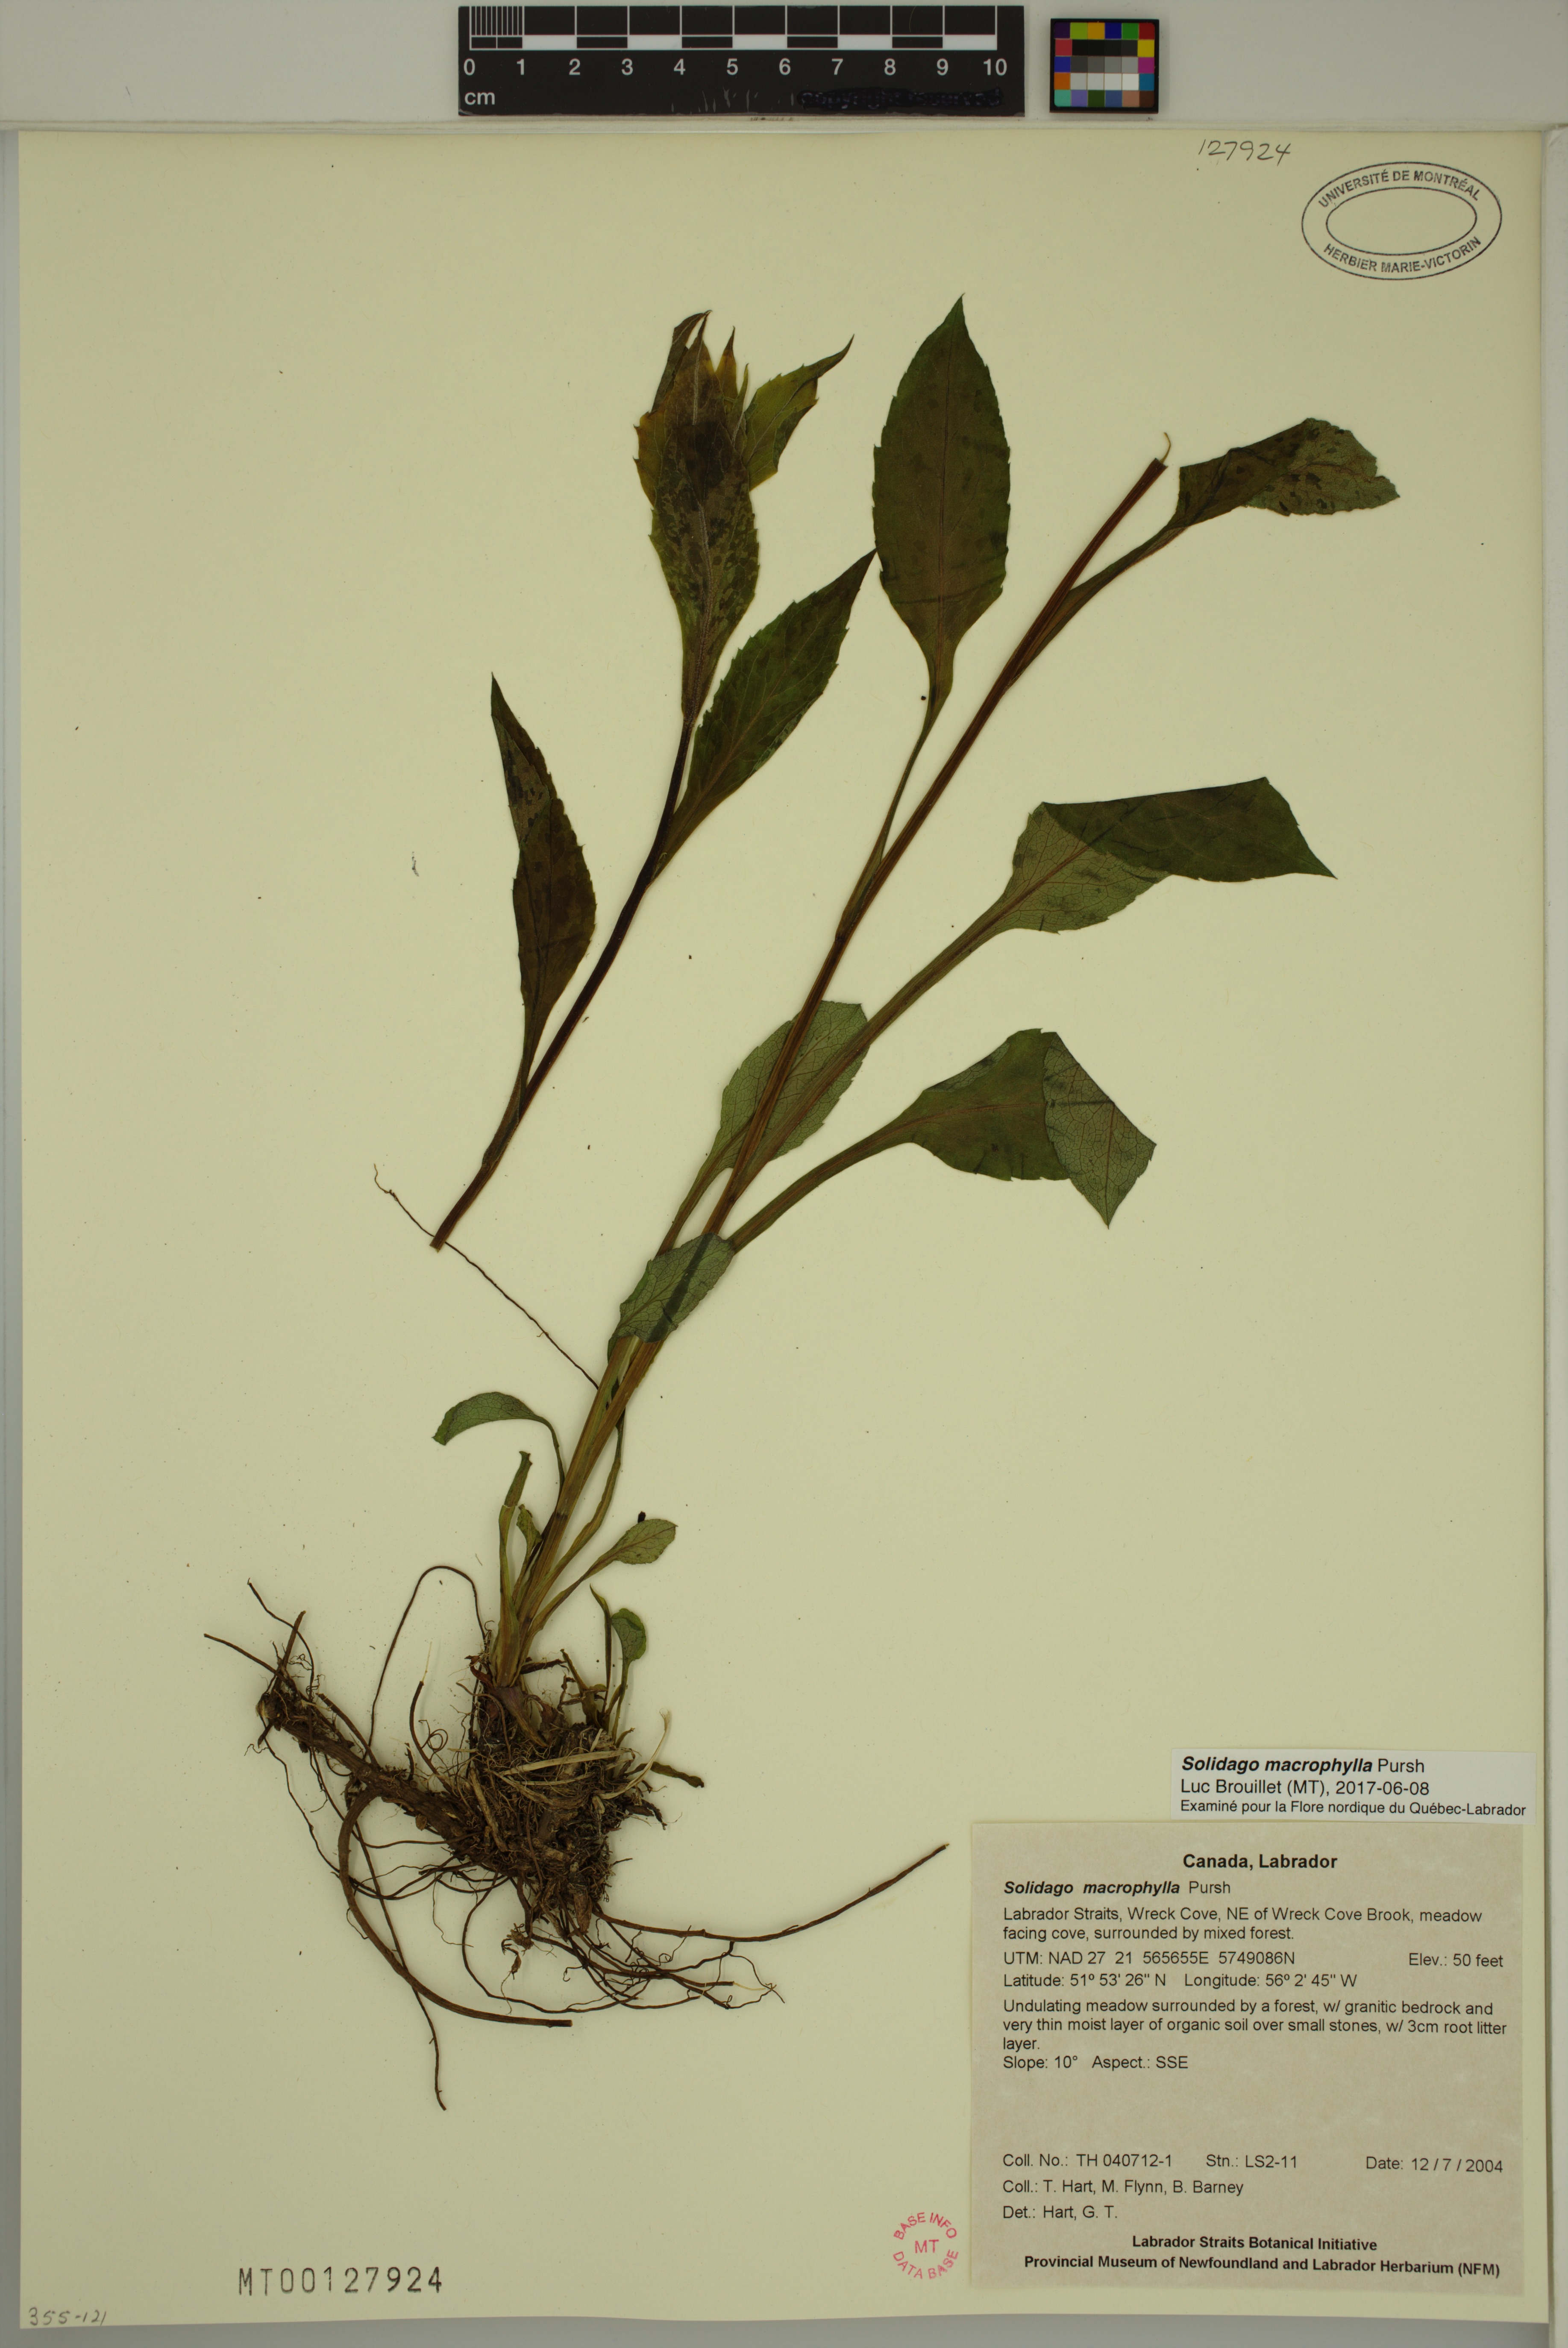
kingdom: Plantae
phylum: Tracheophyta
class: Magnoliopsida
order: Asterales
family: Asteraceae
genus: Solidago
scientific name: Solidago macrophylla
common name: Large-leaved goldenrod
